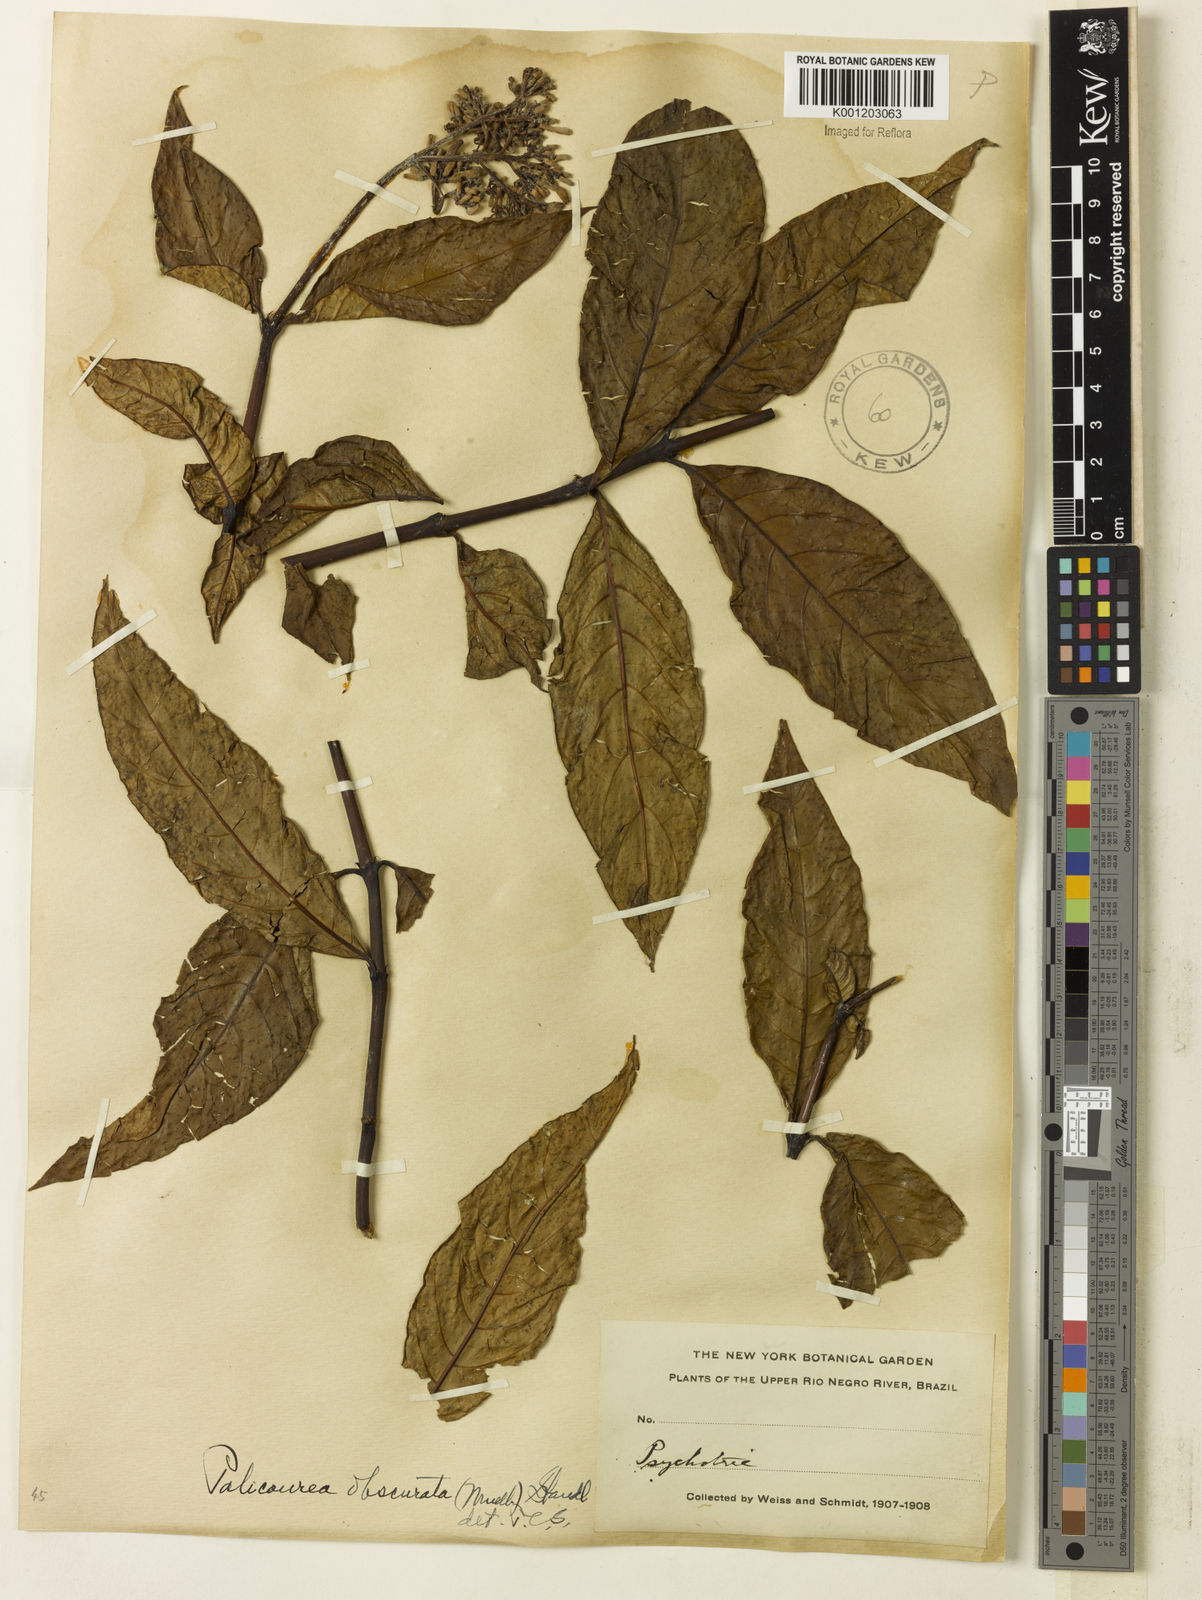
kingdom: Plantae
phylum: Tracheophyta
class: Magnoliopsida
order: Gentianales
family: Rubiaceae
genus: Palicourea
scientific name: Palicourea grandiflora
